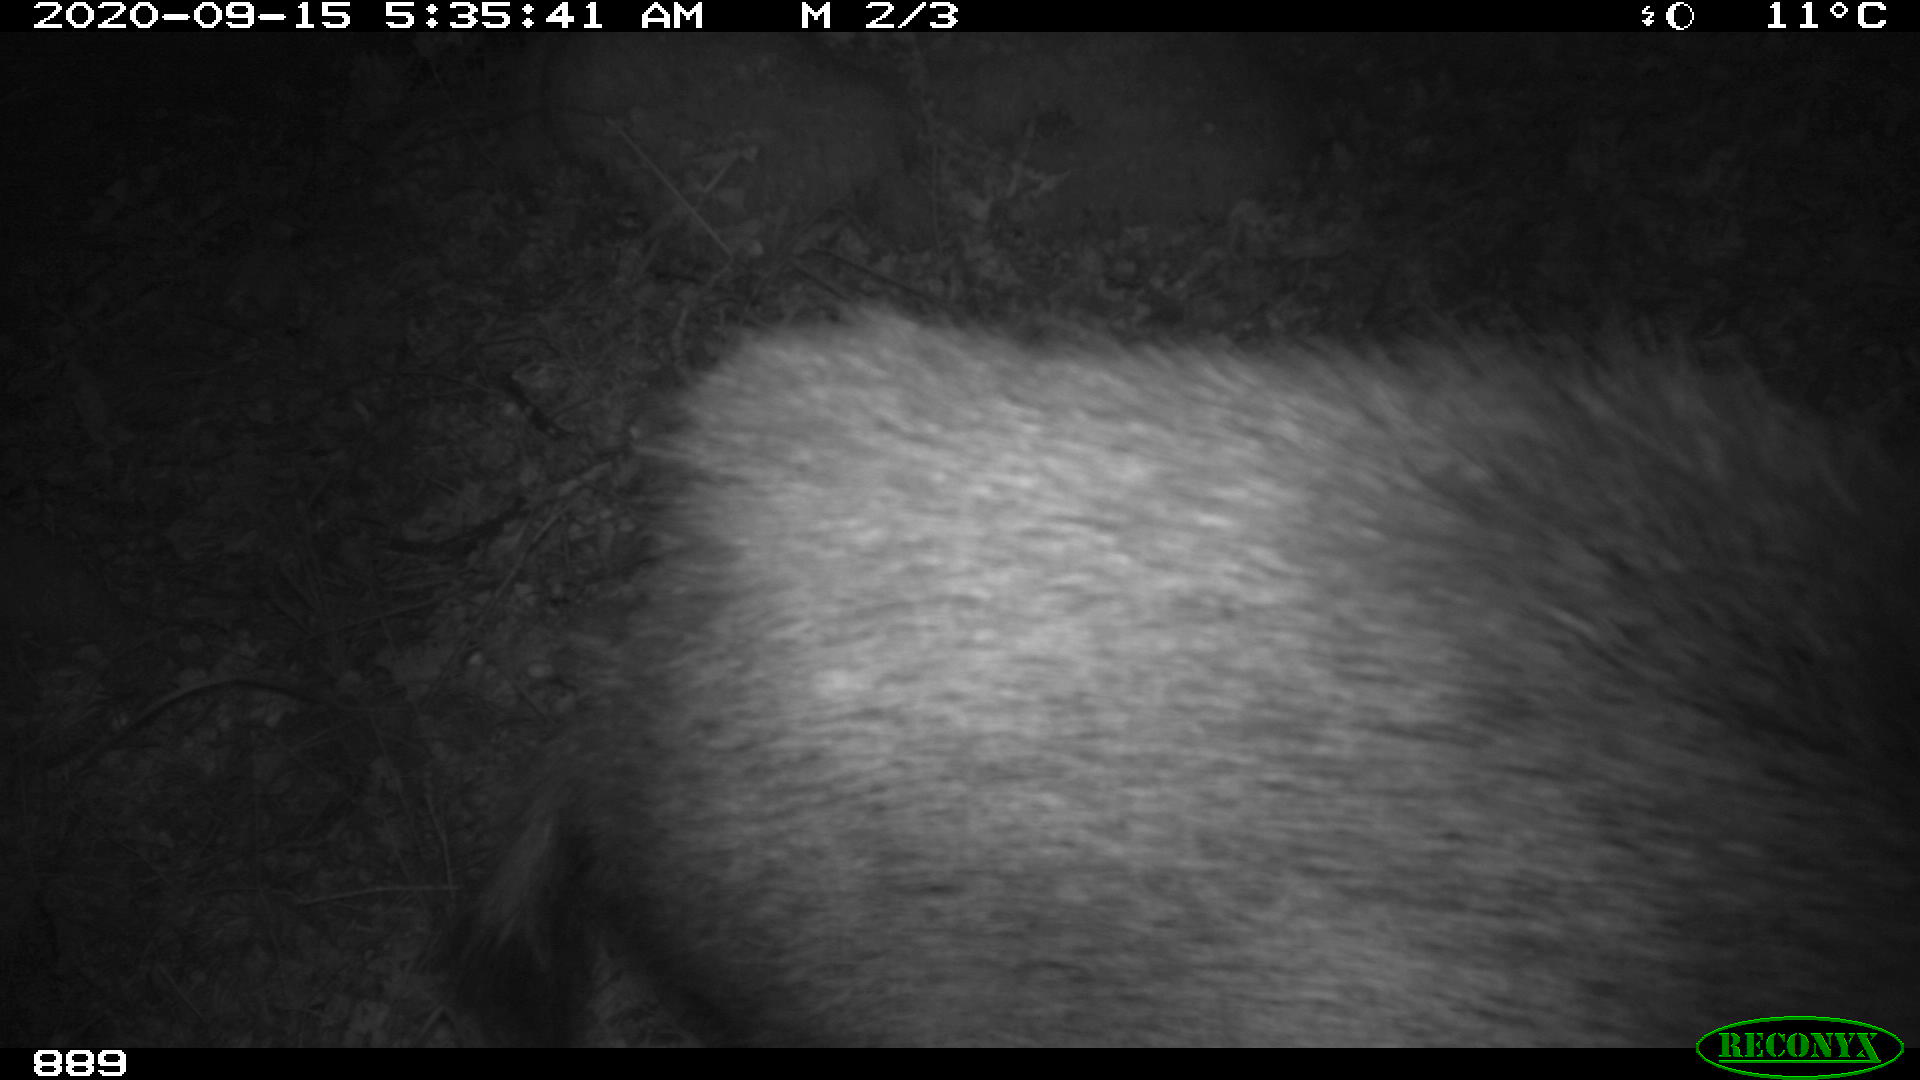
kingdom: Animalia
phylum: Chordata
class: Mammalia
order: Artiodactyla
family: Suidae
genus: Sus
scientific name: Sus scrofa
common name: Wild boar
